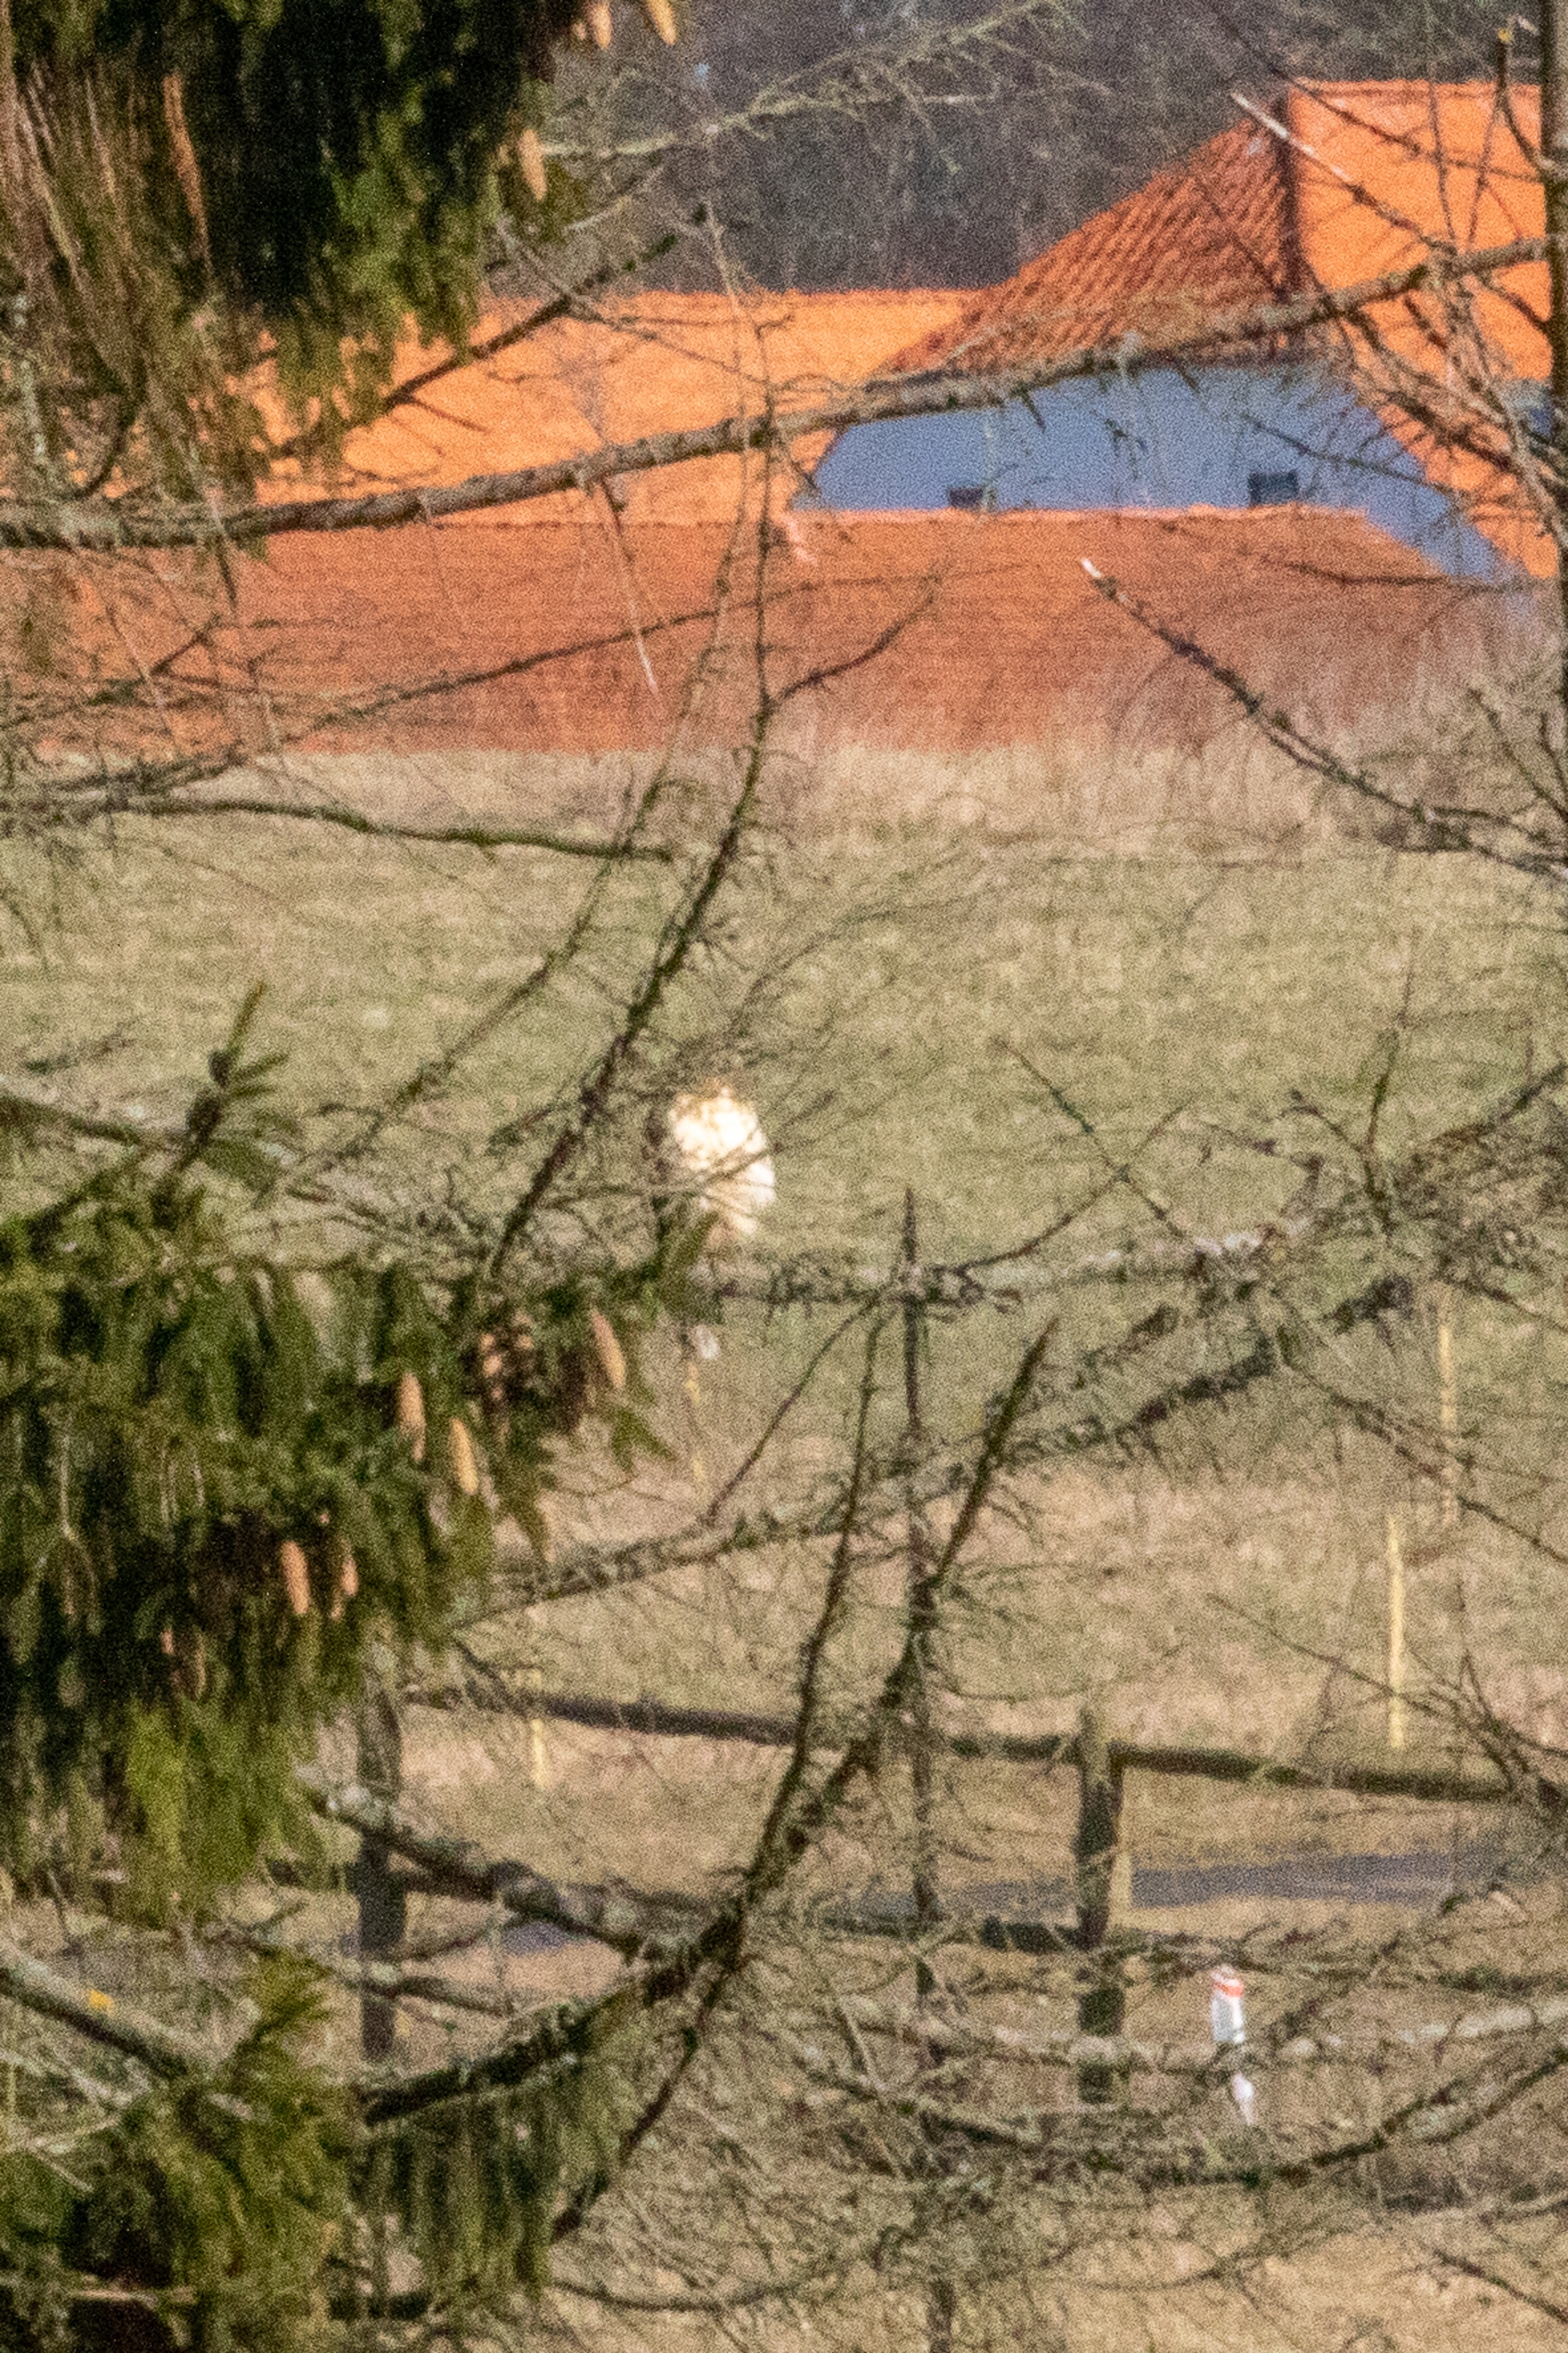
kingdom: Animalia
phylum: Chordata
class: Aves
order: Accipitriformes
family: Accipitridae
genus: Buteo
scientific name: Buteo buteo
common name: Musvåge
